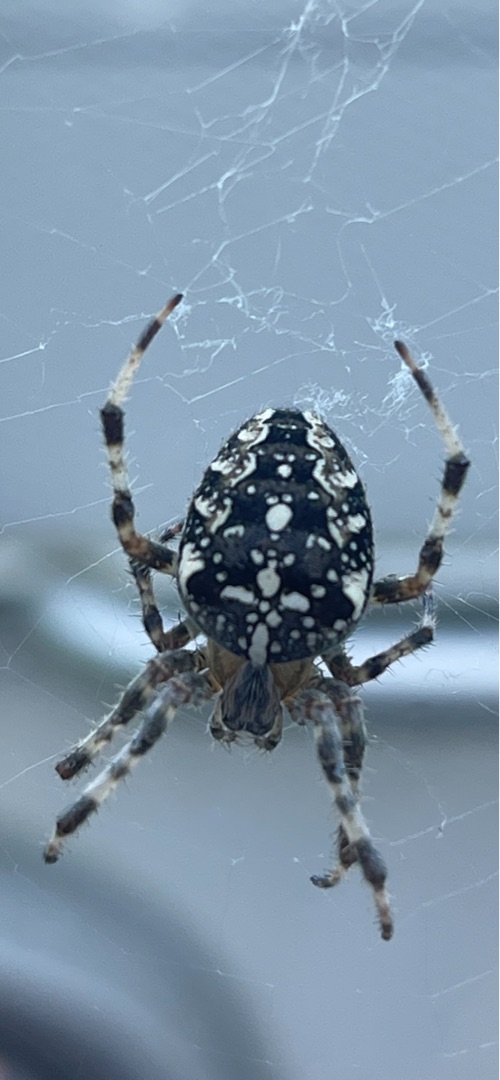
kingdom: Animalia
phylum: Arthropoda
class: Arachnida
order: Araneae
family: Araneidae
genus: Araneus
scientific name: Araneus diadematus
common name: Korsedderkop
